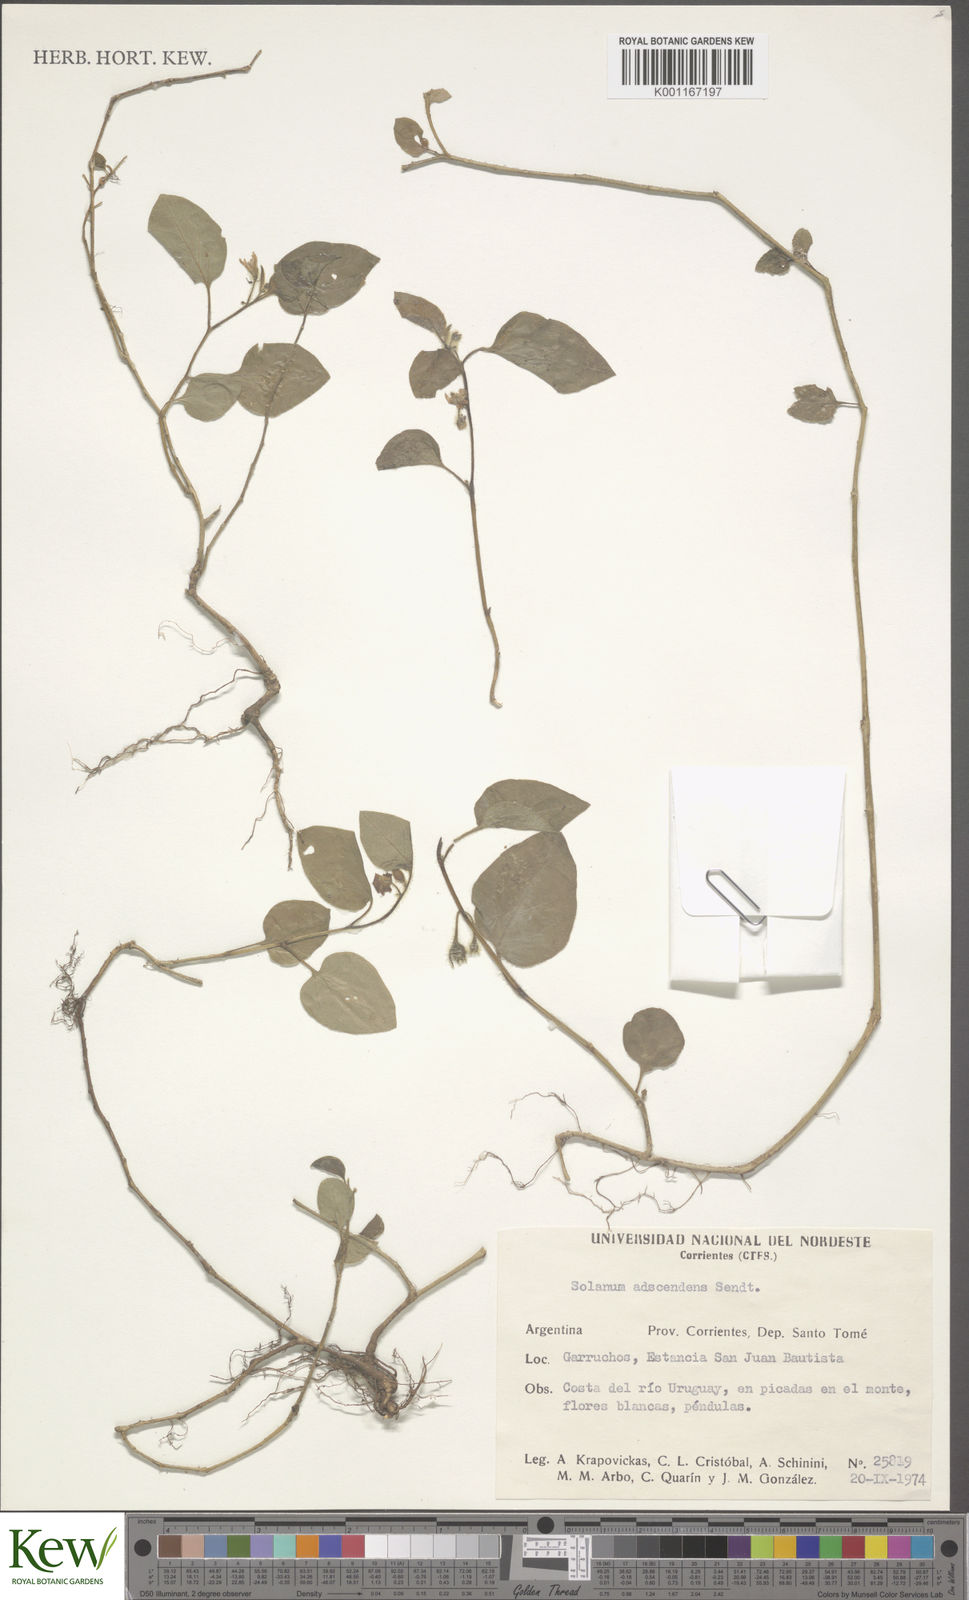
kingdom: Plantae
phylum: Tracheophyta
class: Magnoliopsida
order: Solanales
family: Solanaceae
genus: Solanum
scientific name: Solanum adscendens
